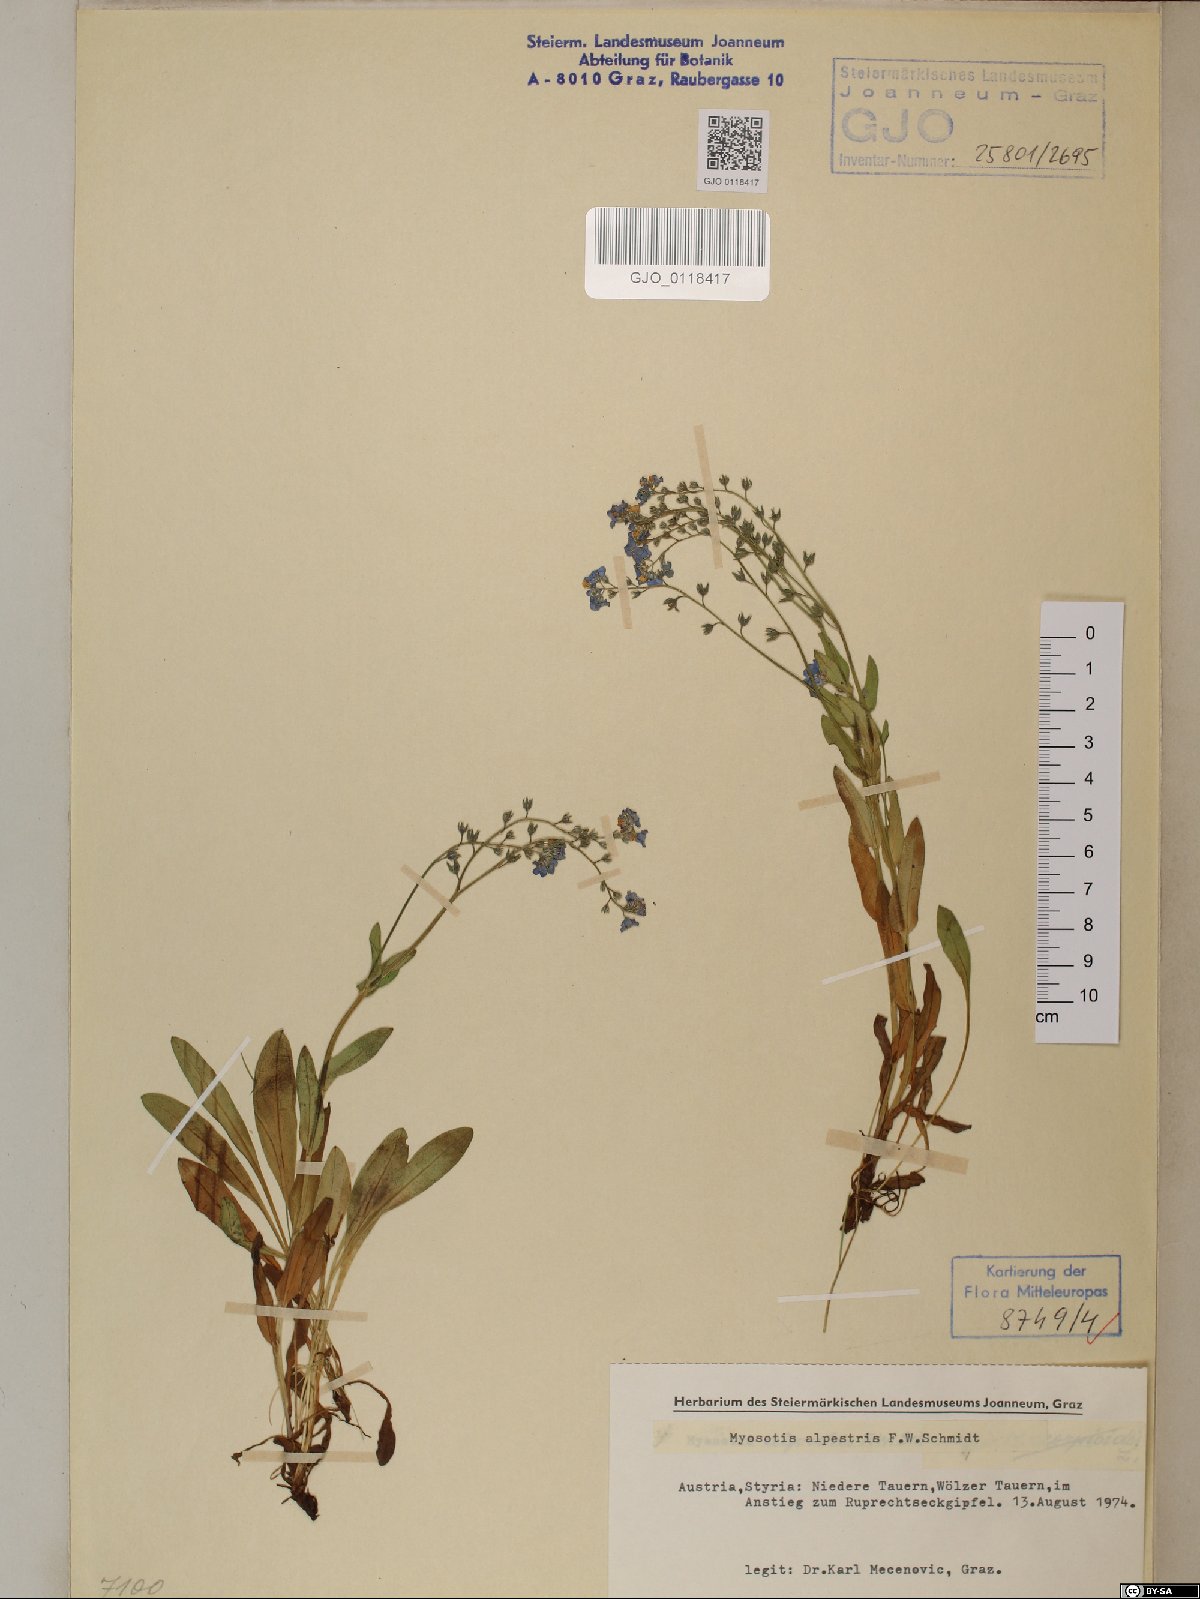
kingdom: Plantae
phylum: Tracheophyta
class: Magnoliopsida
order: Boraginales
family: Boraginaceae
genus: Myosotis
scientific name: Myosotis alpestris
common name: Alpine forget-me-not
